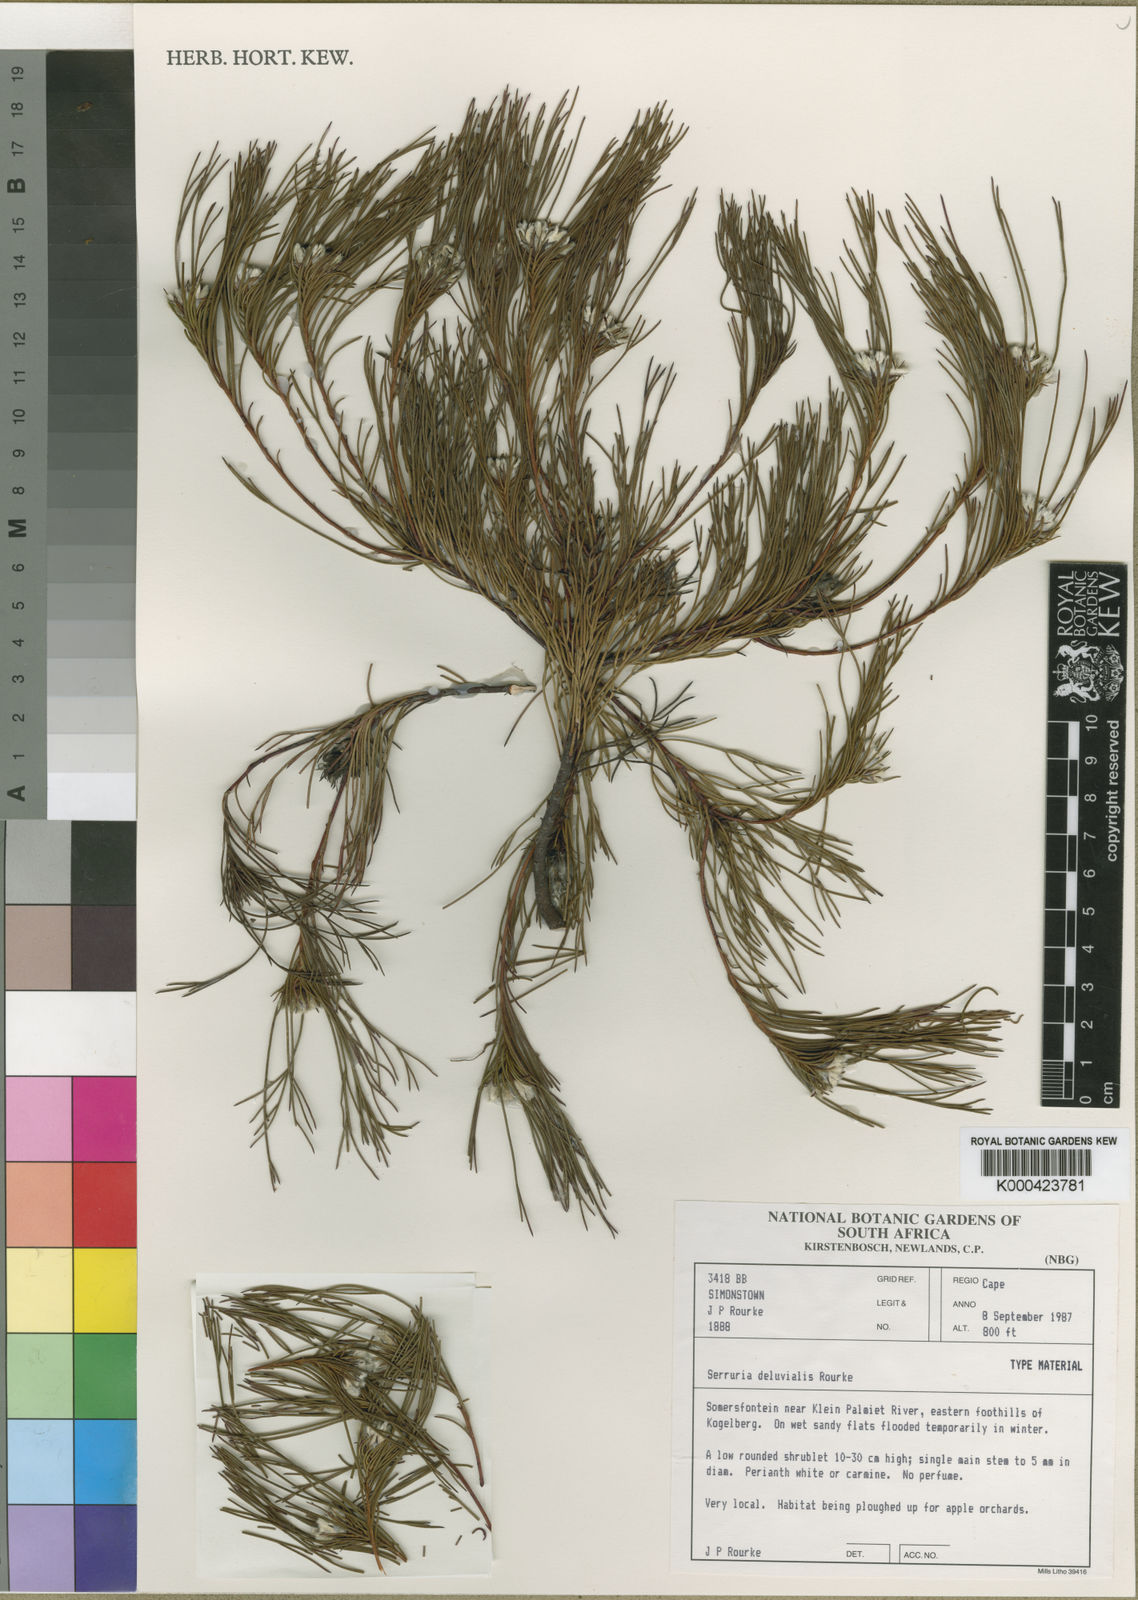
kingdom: Plantae
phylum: Tracheophyta
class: Magnoliopsida
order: Proteales
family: Proteaceae
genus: Serruria
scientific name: Serruria deluvialis
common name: Grass spiderhead
